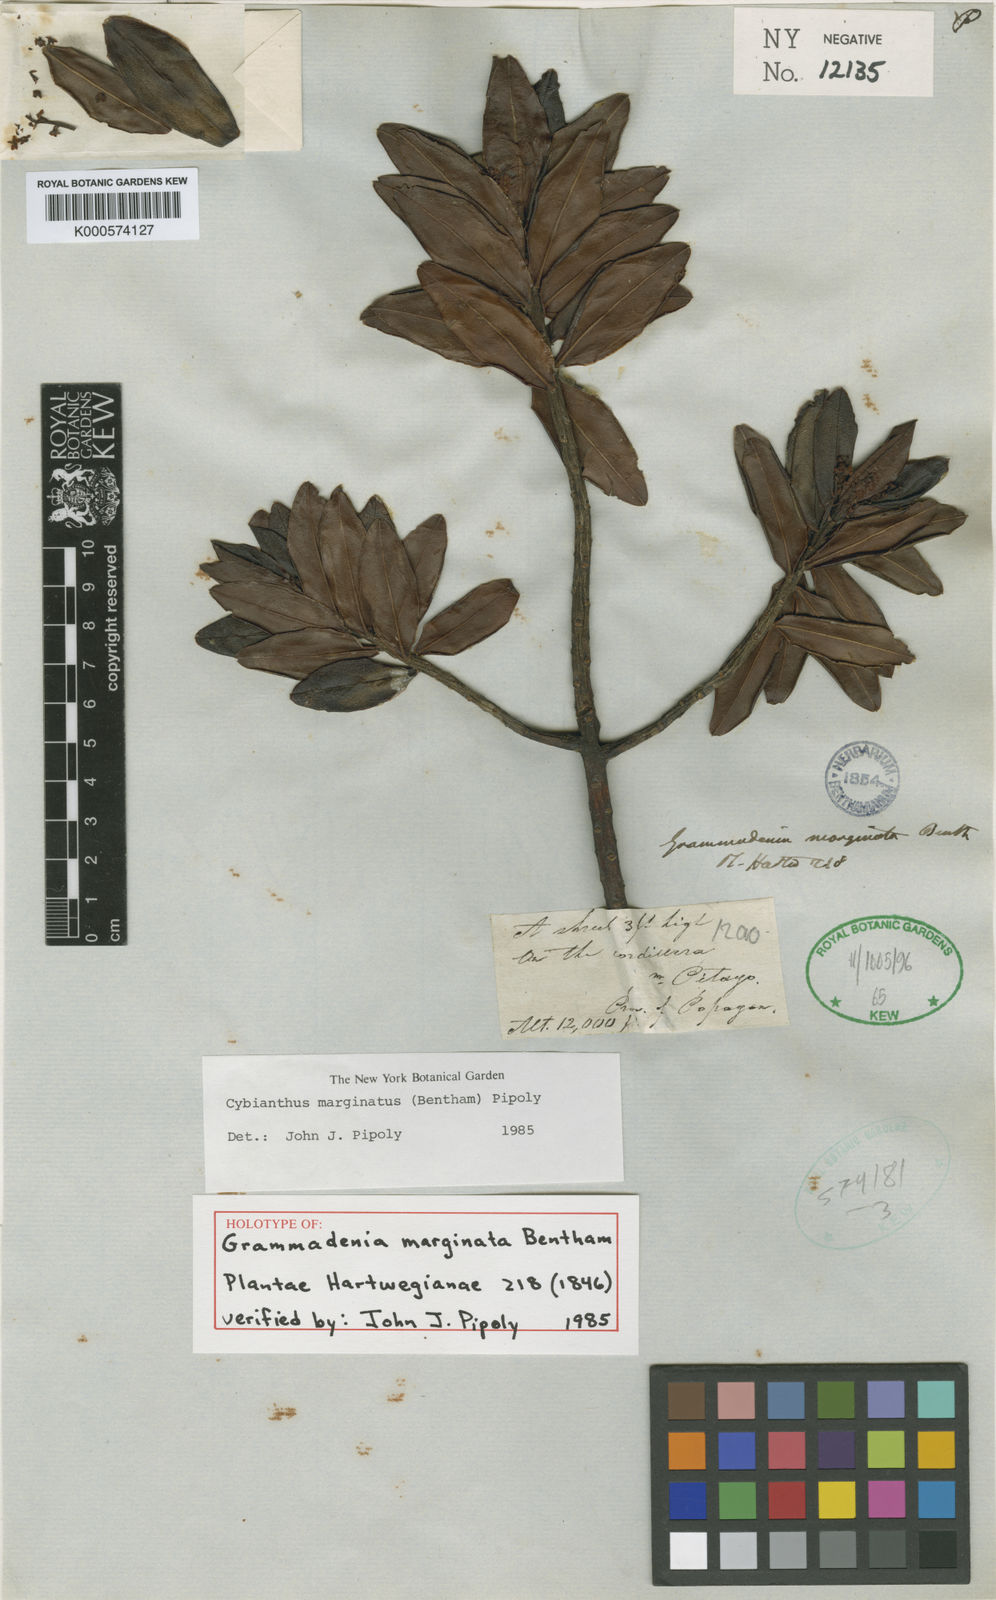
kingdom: Plantae
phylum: Tracheophyta
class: Magnoliopsida
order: Ericales
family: Primulaceae
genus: Cybianthus
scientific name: Cybianthus marginatus
